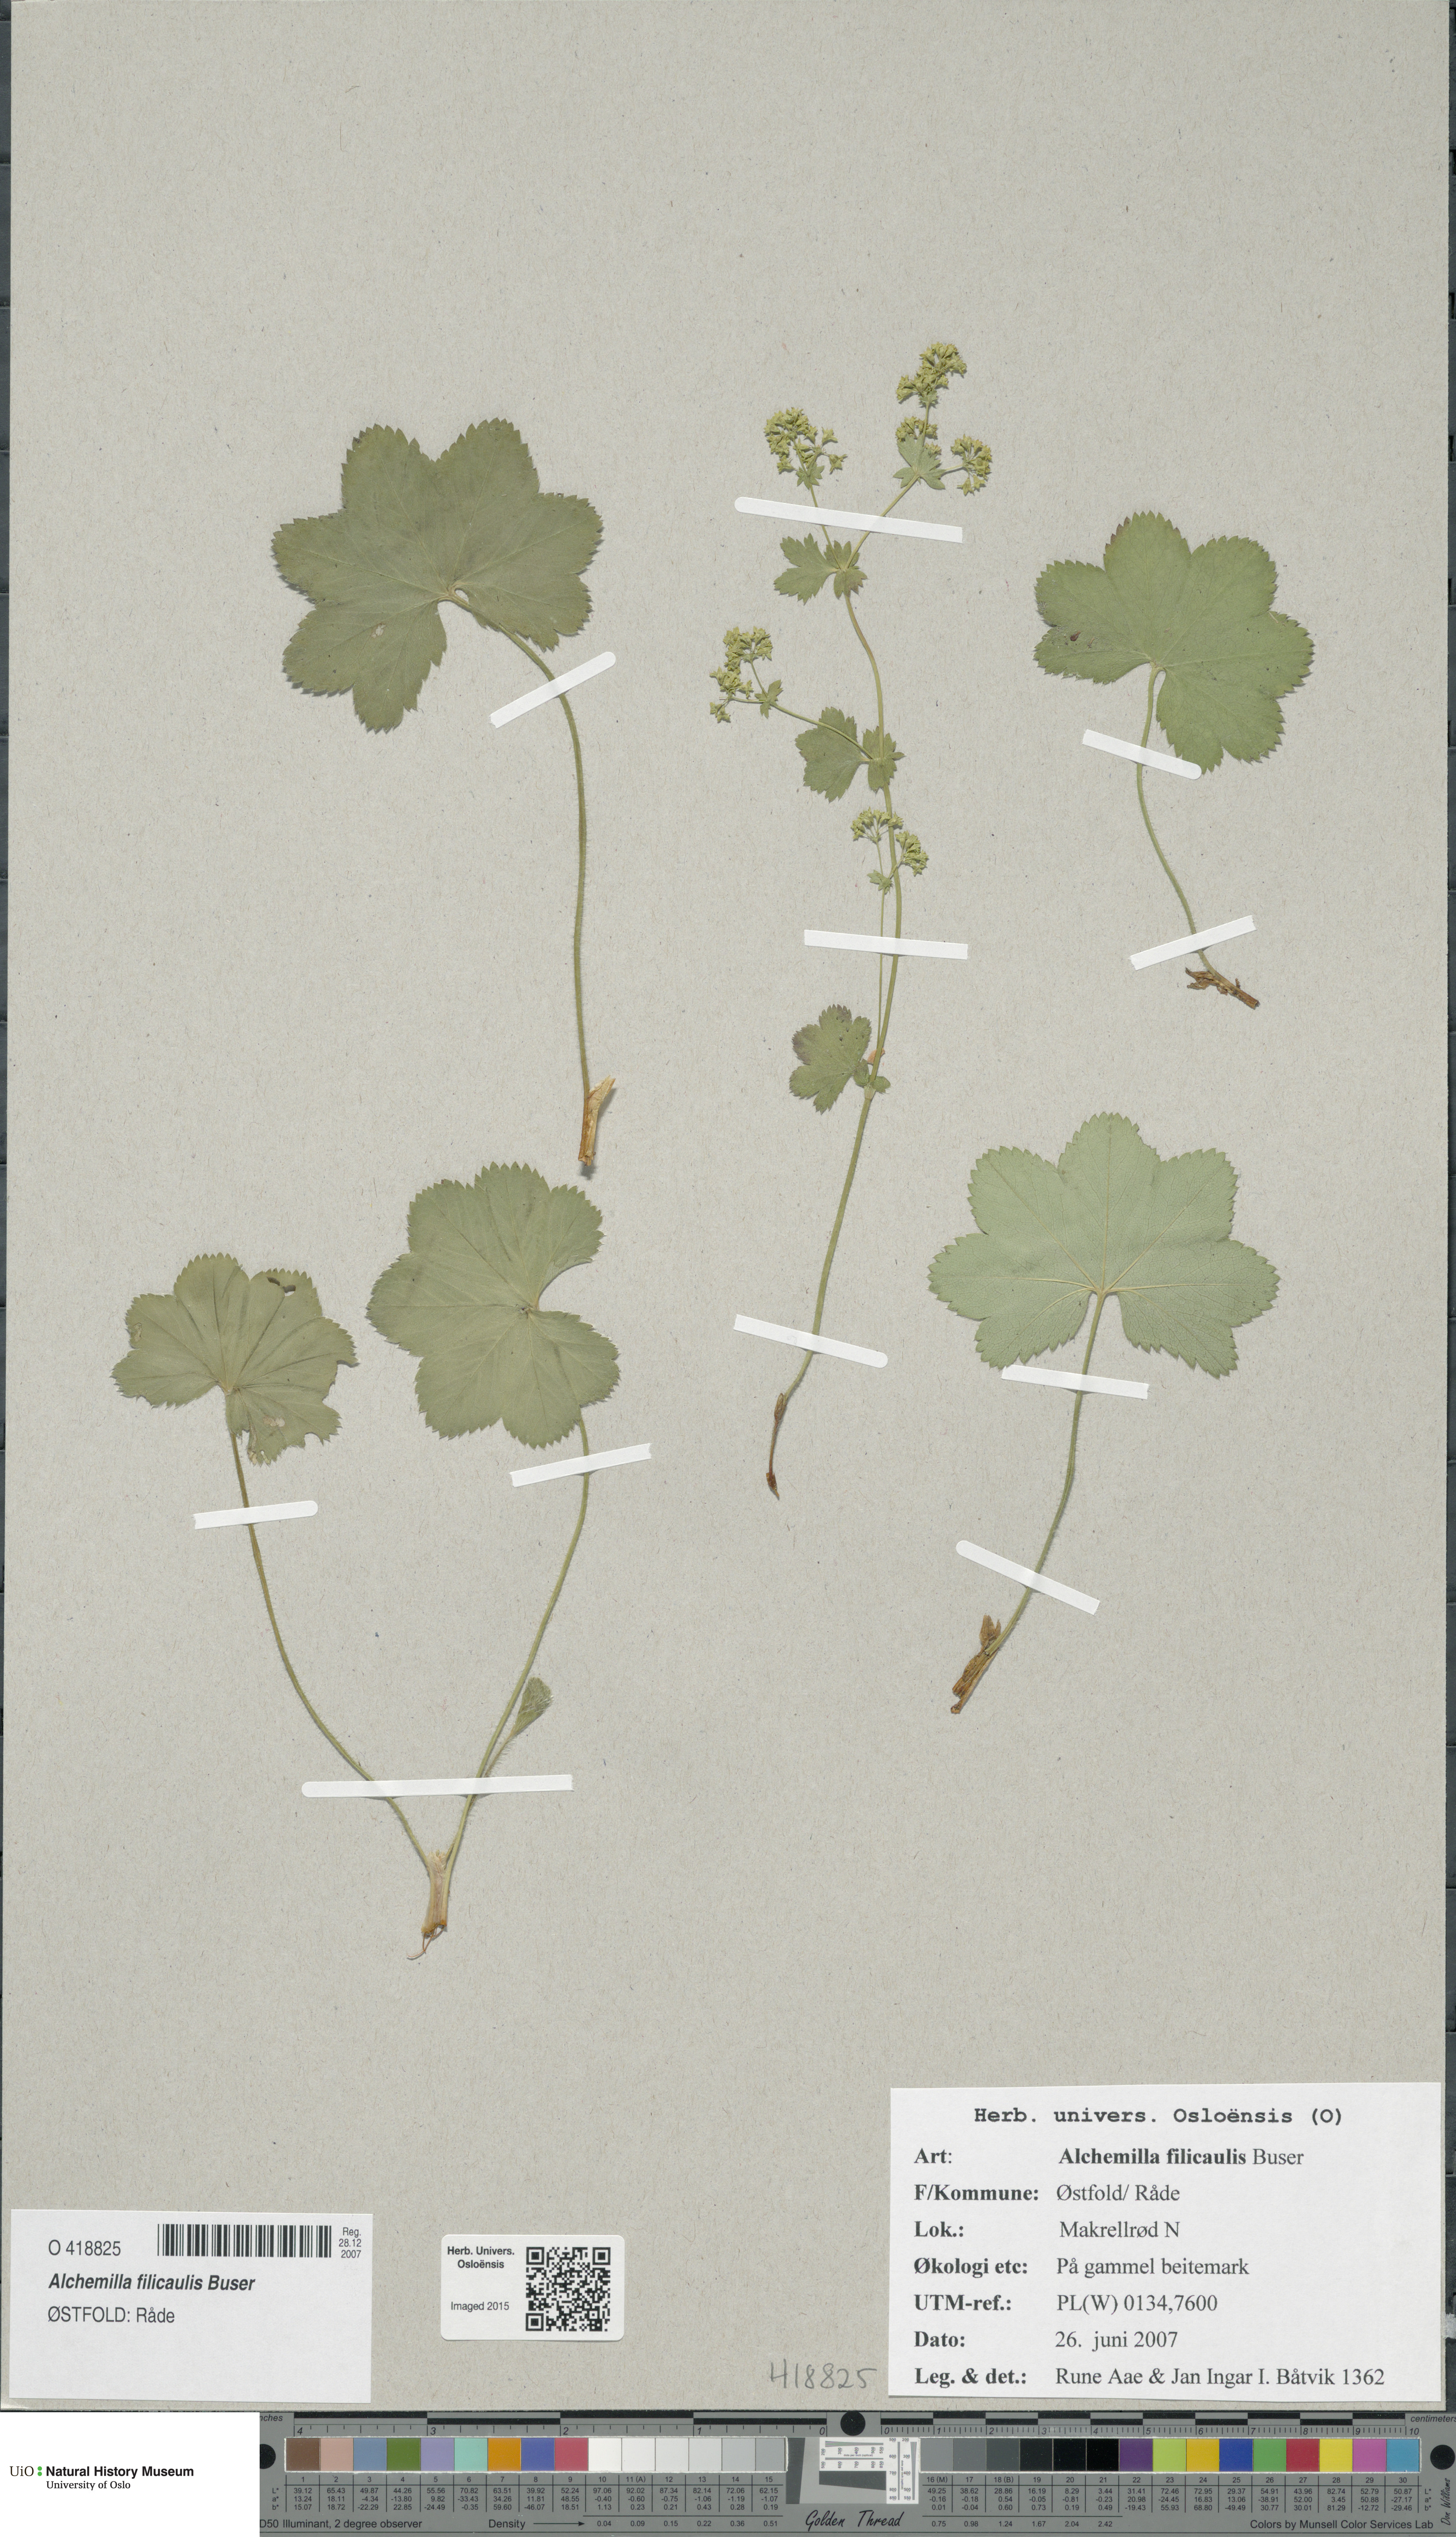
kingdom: Plantae
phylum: Tracheophyta
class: Magnoliopsida
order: Rosales
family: Rosaceae
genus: Alchemilla
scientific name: Alchemilla filicaulis
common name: Hairy lady's-mantle
